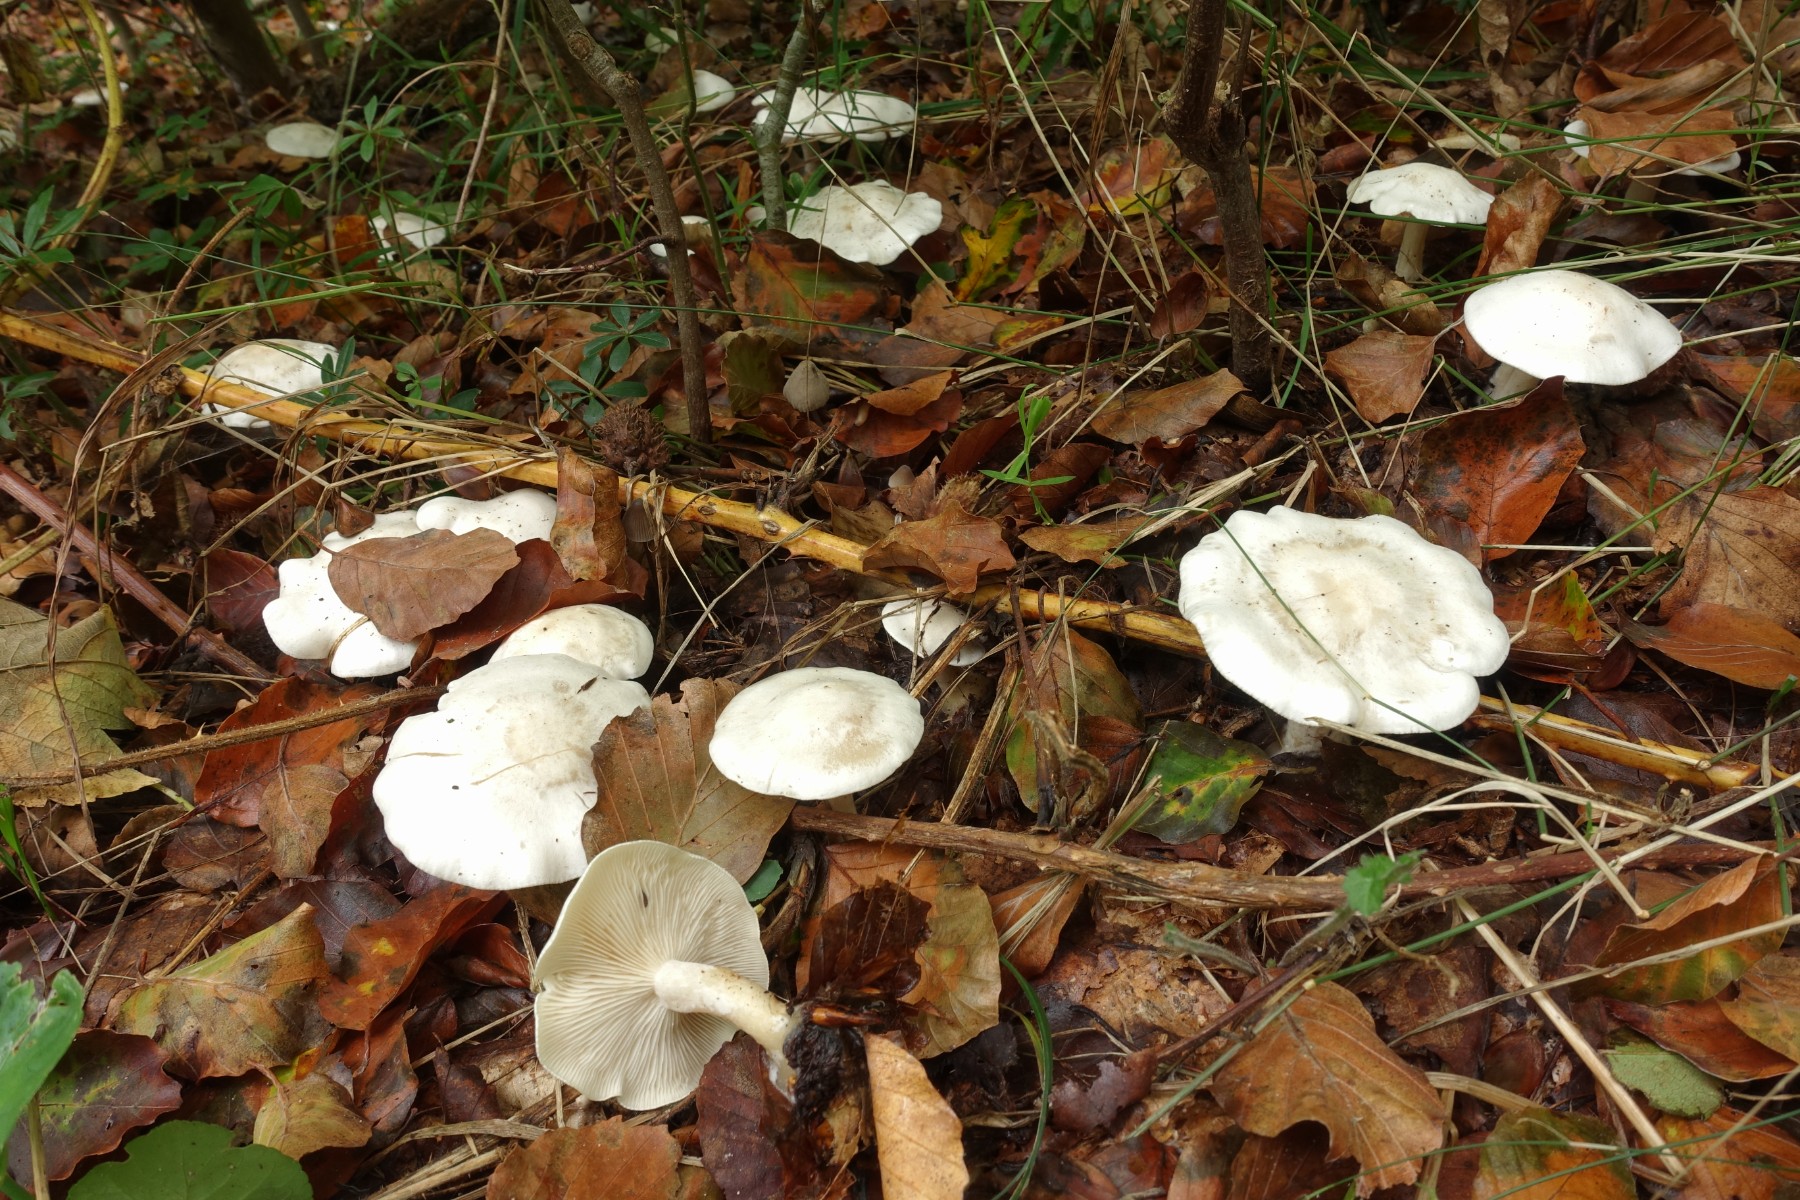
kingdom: Fungi
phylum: Basidiomycota
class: Agaricomycetes
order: Agaricales
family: Tricholomataceae
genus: Clitocybe
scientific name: Clitocybe phyllophila
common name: løv-tragthat
